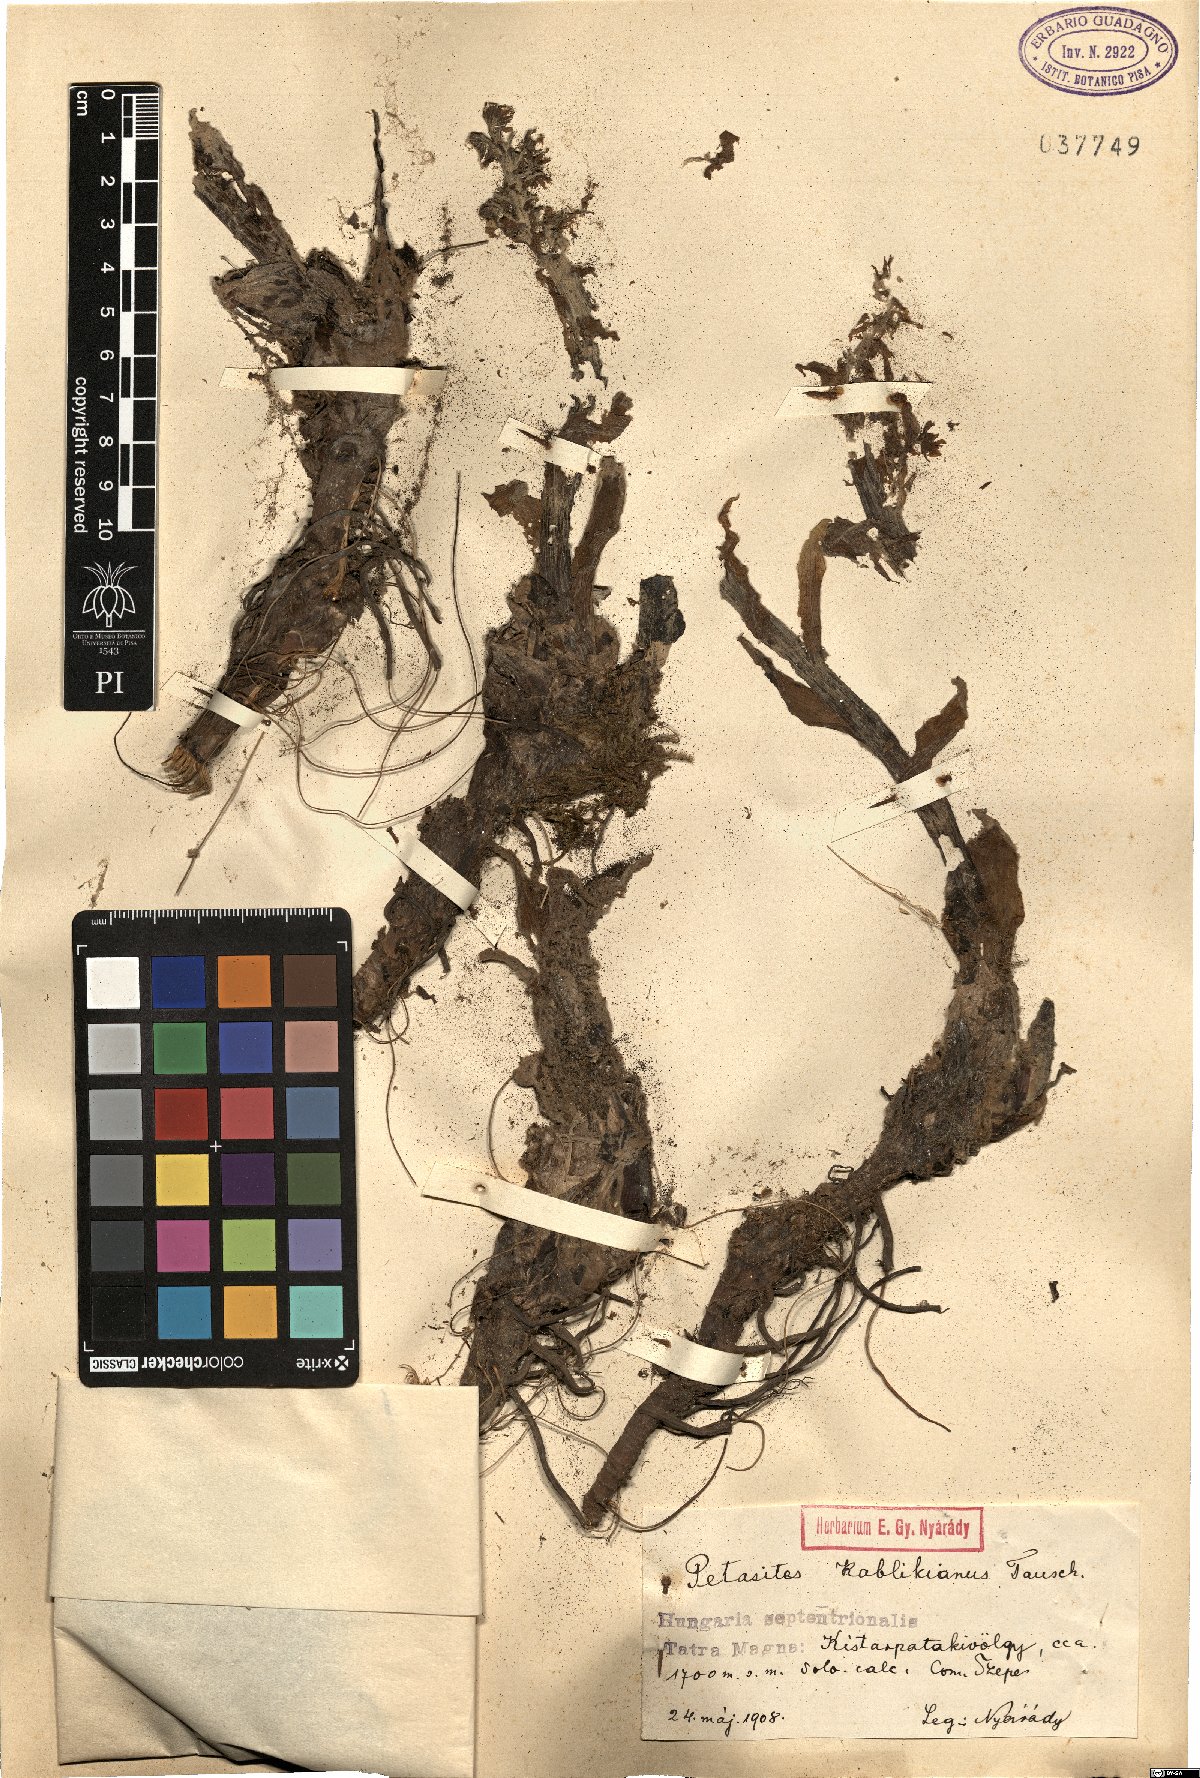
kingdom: Plantae
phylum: Tracheophyta
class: Magnoliopsida
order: Asterales
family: Asteraceae
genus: Petasites
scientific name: Petasites kablikianus
